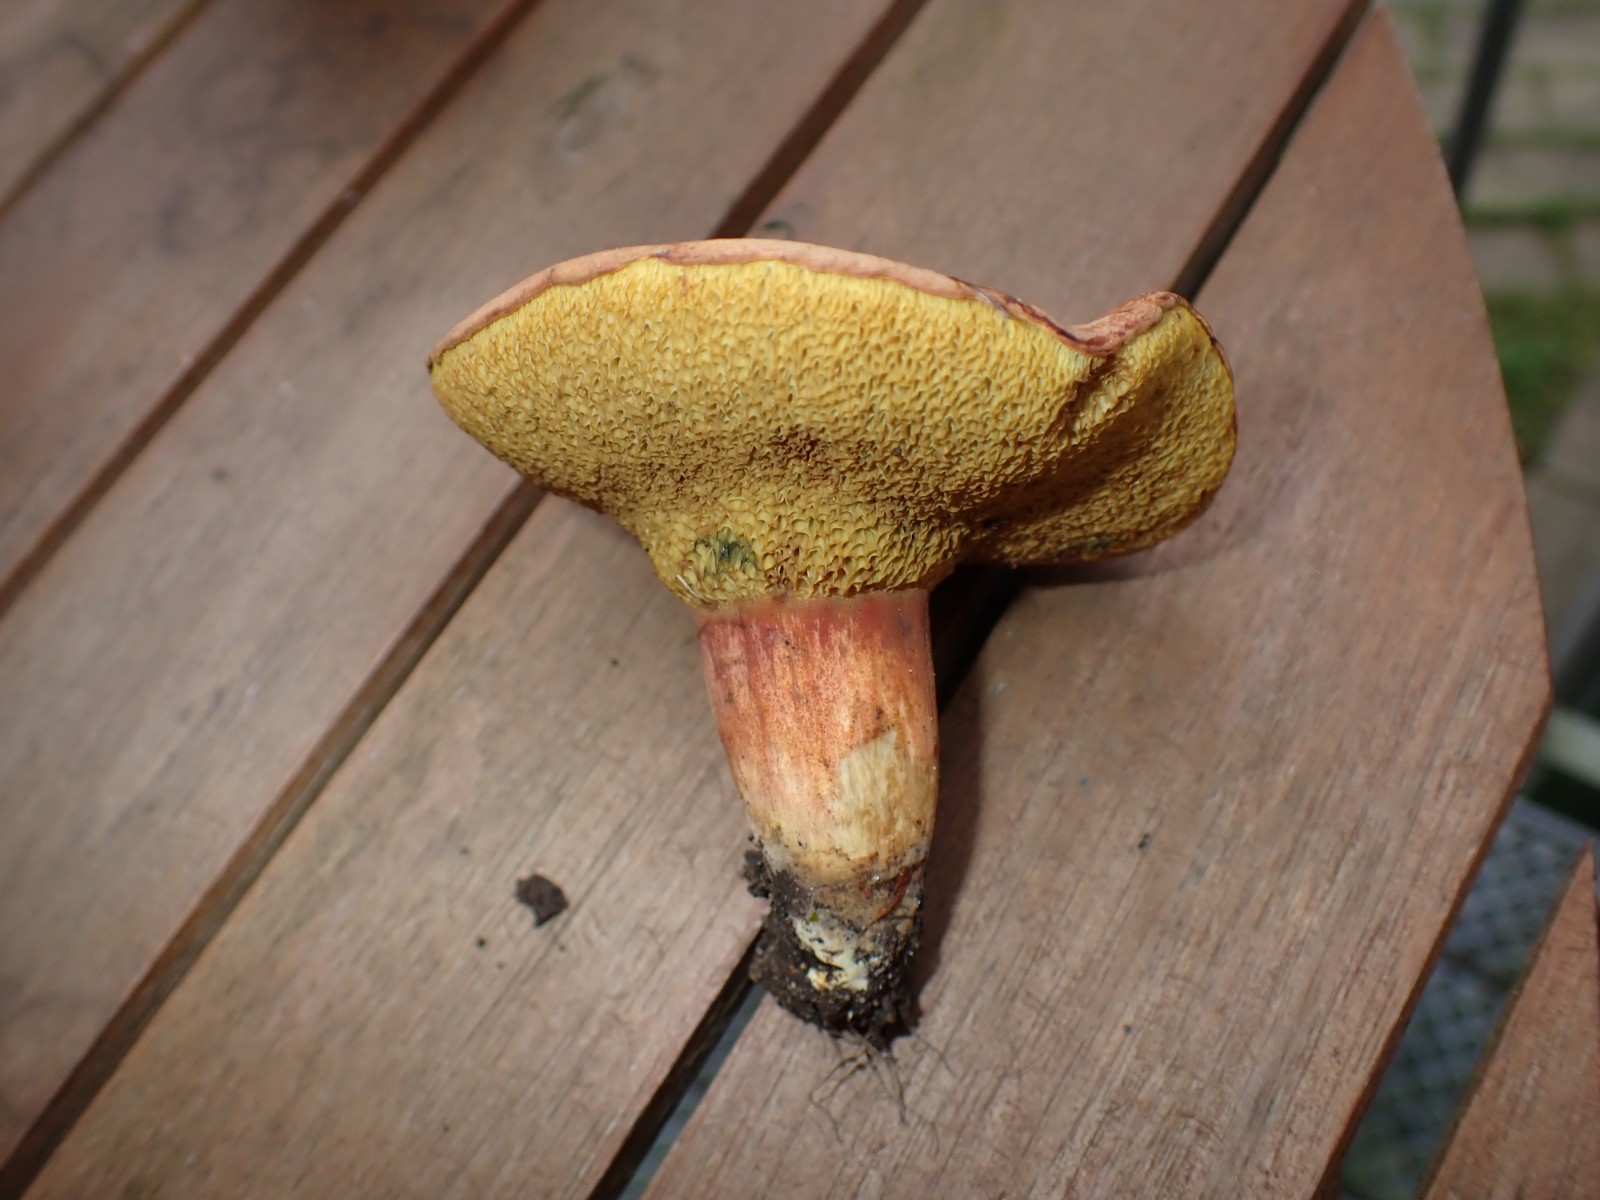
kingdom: Fungi
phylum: Basidiomycota
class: Agaricomycetes
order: Boletales
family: Boletaceae
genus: Hortiboletus
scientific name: Hortiboletus bubalinus
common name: aurora-rørhat
